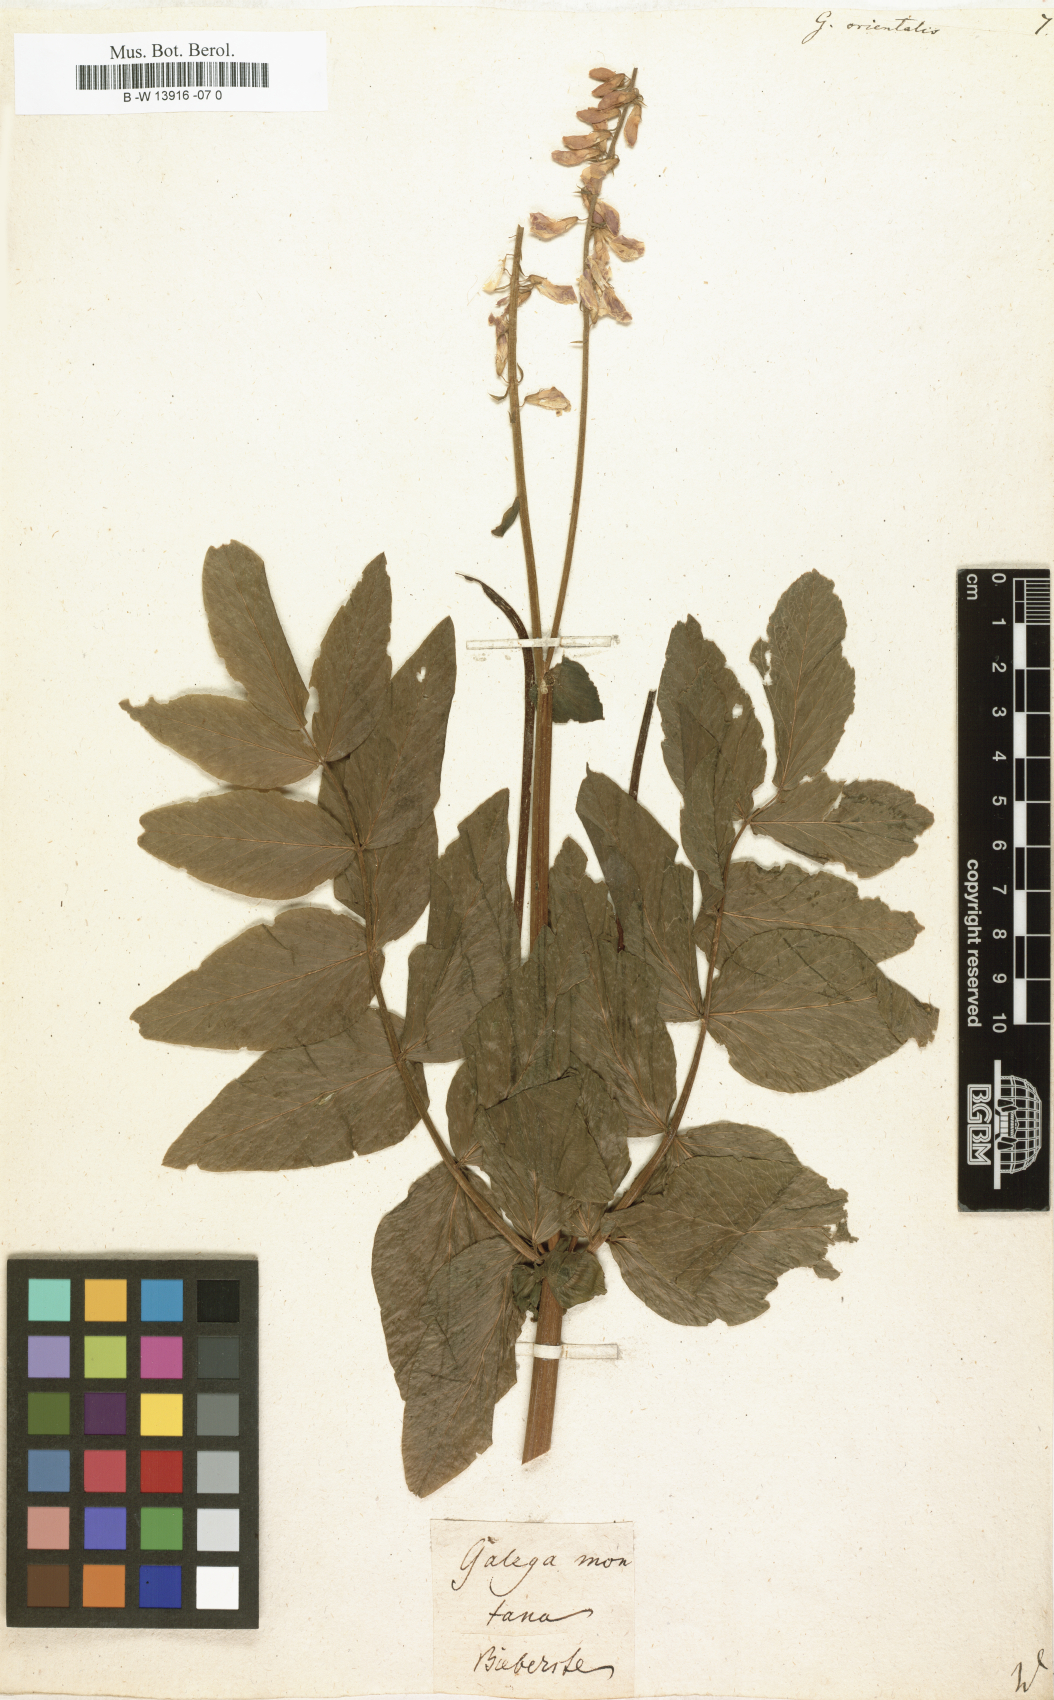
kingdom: Plantae
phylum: Tracheophyta
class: Magnoliopsida
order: Fabales
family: Fabaceae
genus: Galega
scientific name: Galega orientalis
